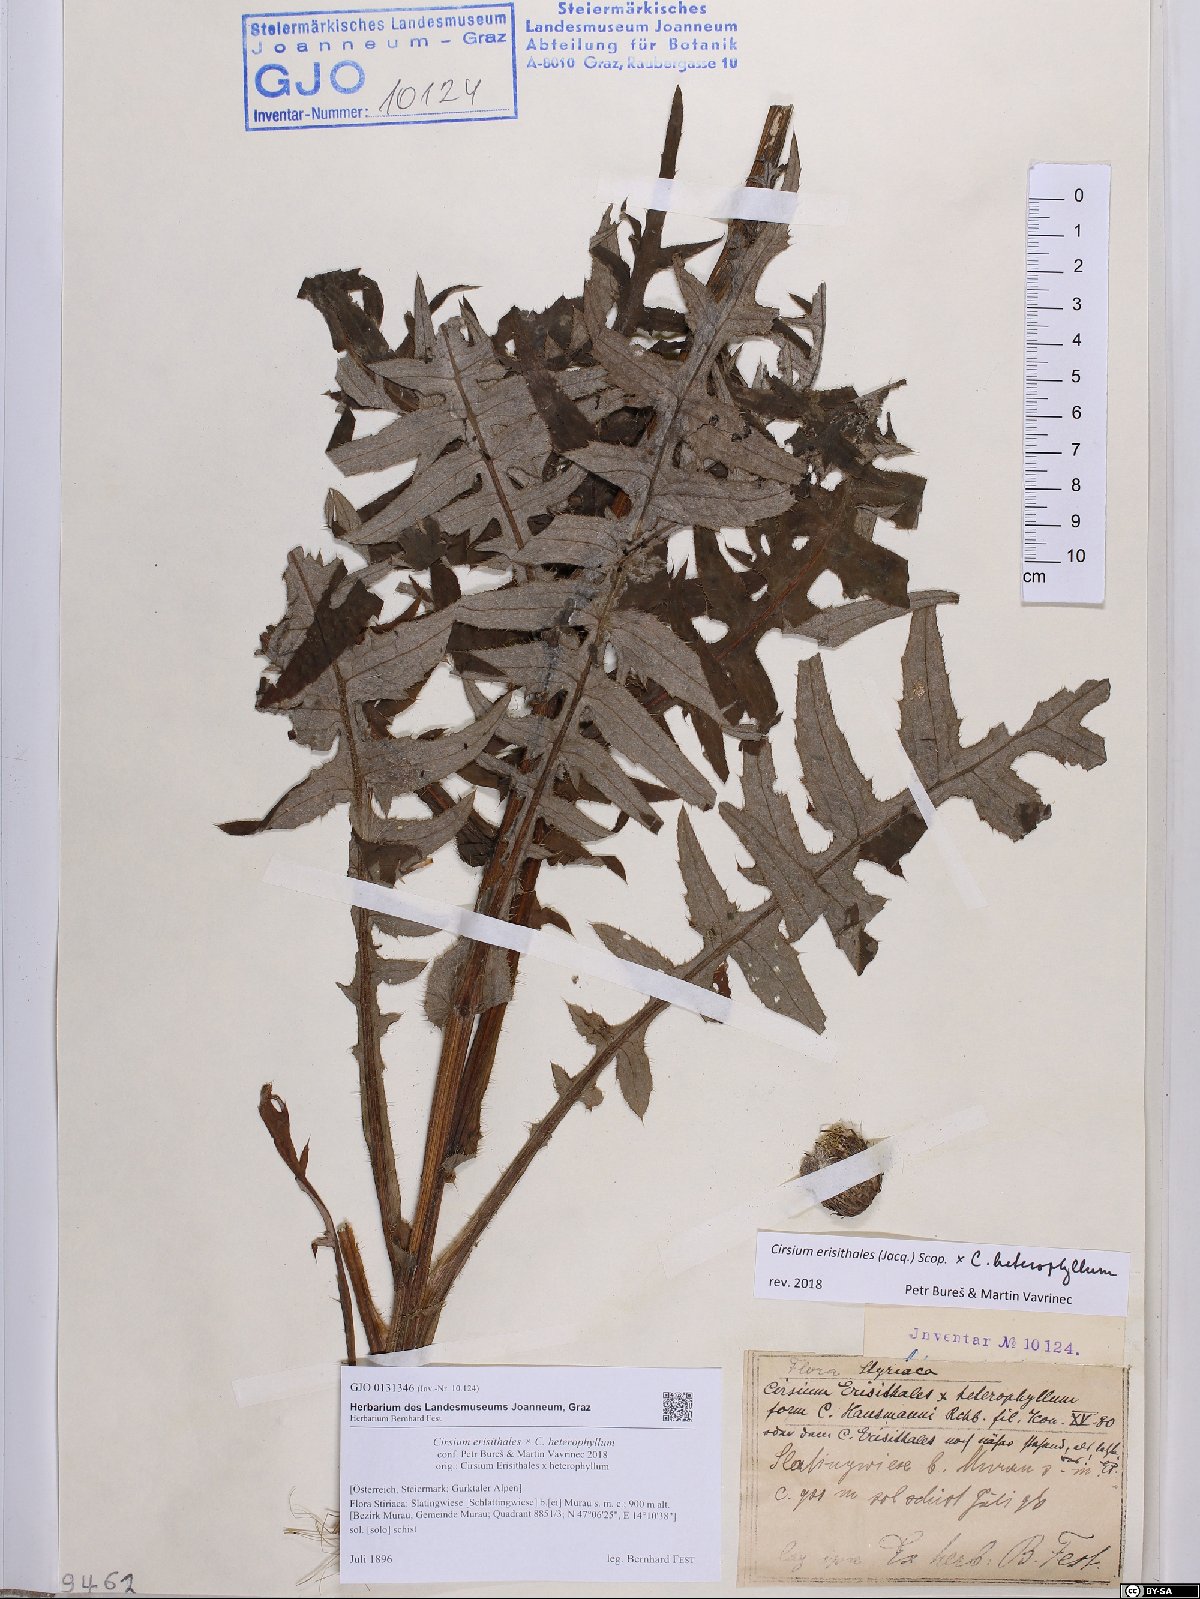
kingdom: Plantae
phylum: Tracheophyta
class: Magnoliopsida
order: Asterales
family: Asteraceae
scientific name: Asteraceae
